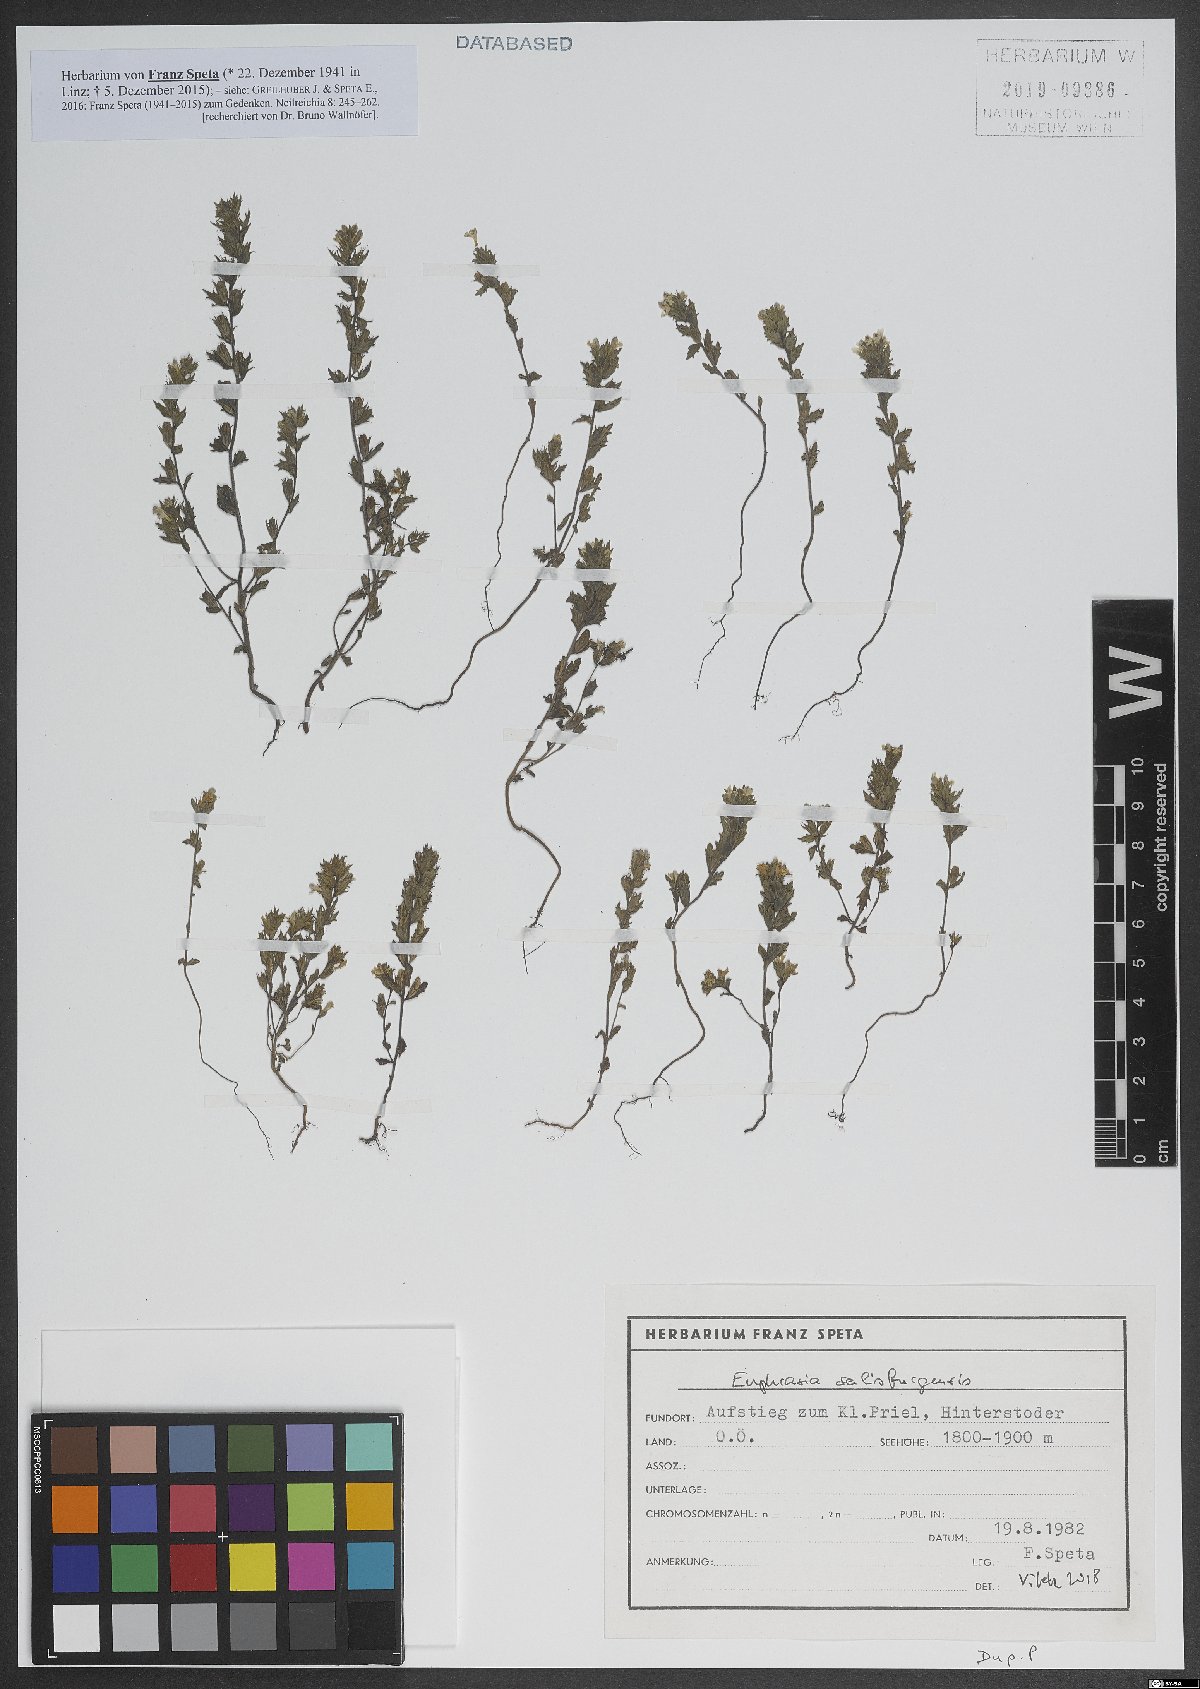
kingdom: Plantae
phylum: Tracheophyta
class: Magnoliopsida
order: Lamiales
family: Orobanchaceae
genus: Euphrasia
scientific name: Euphrasia salisburgensis
